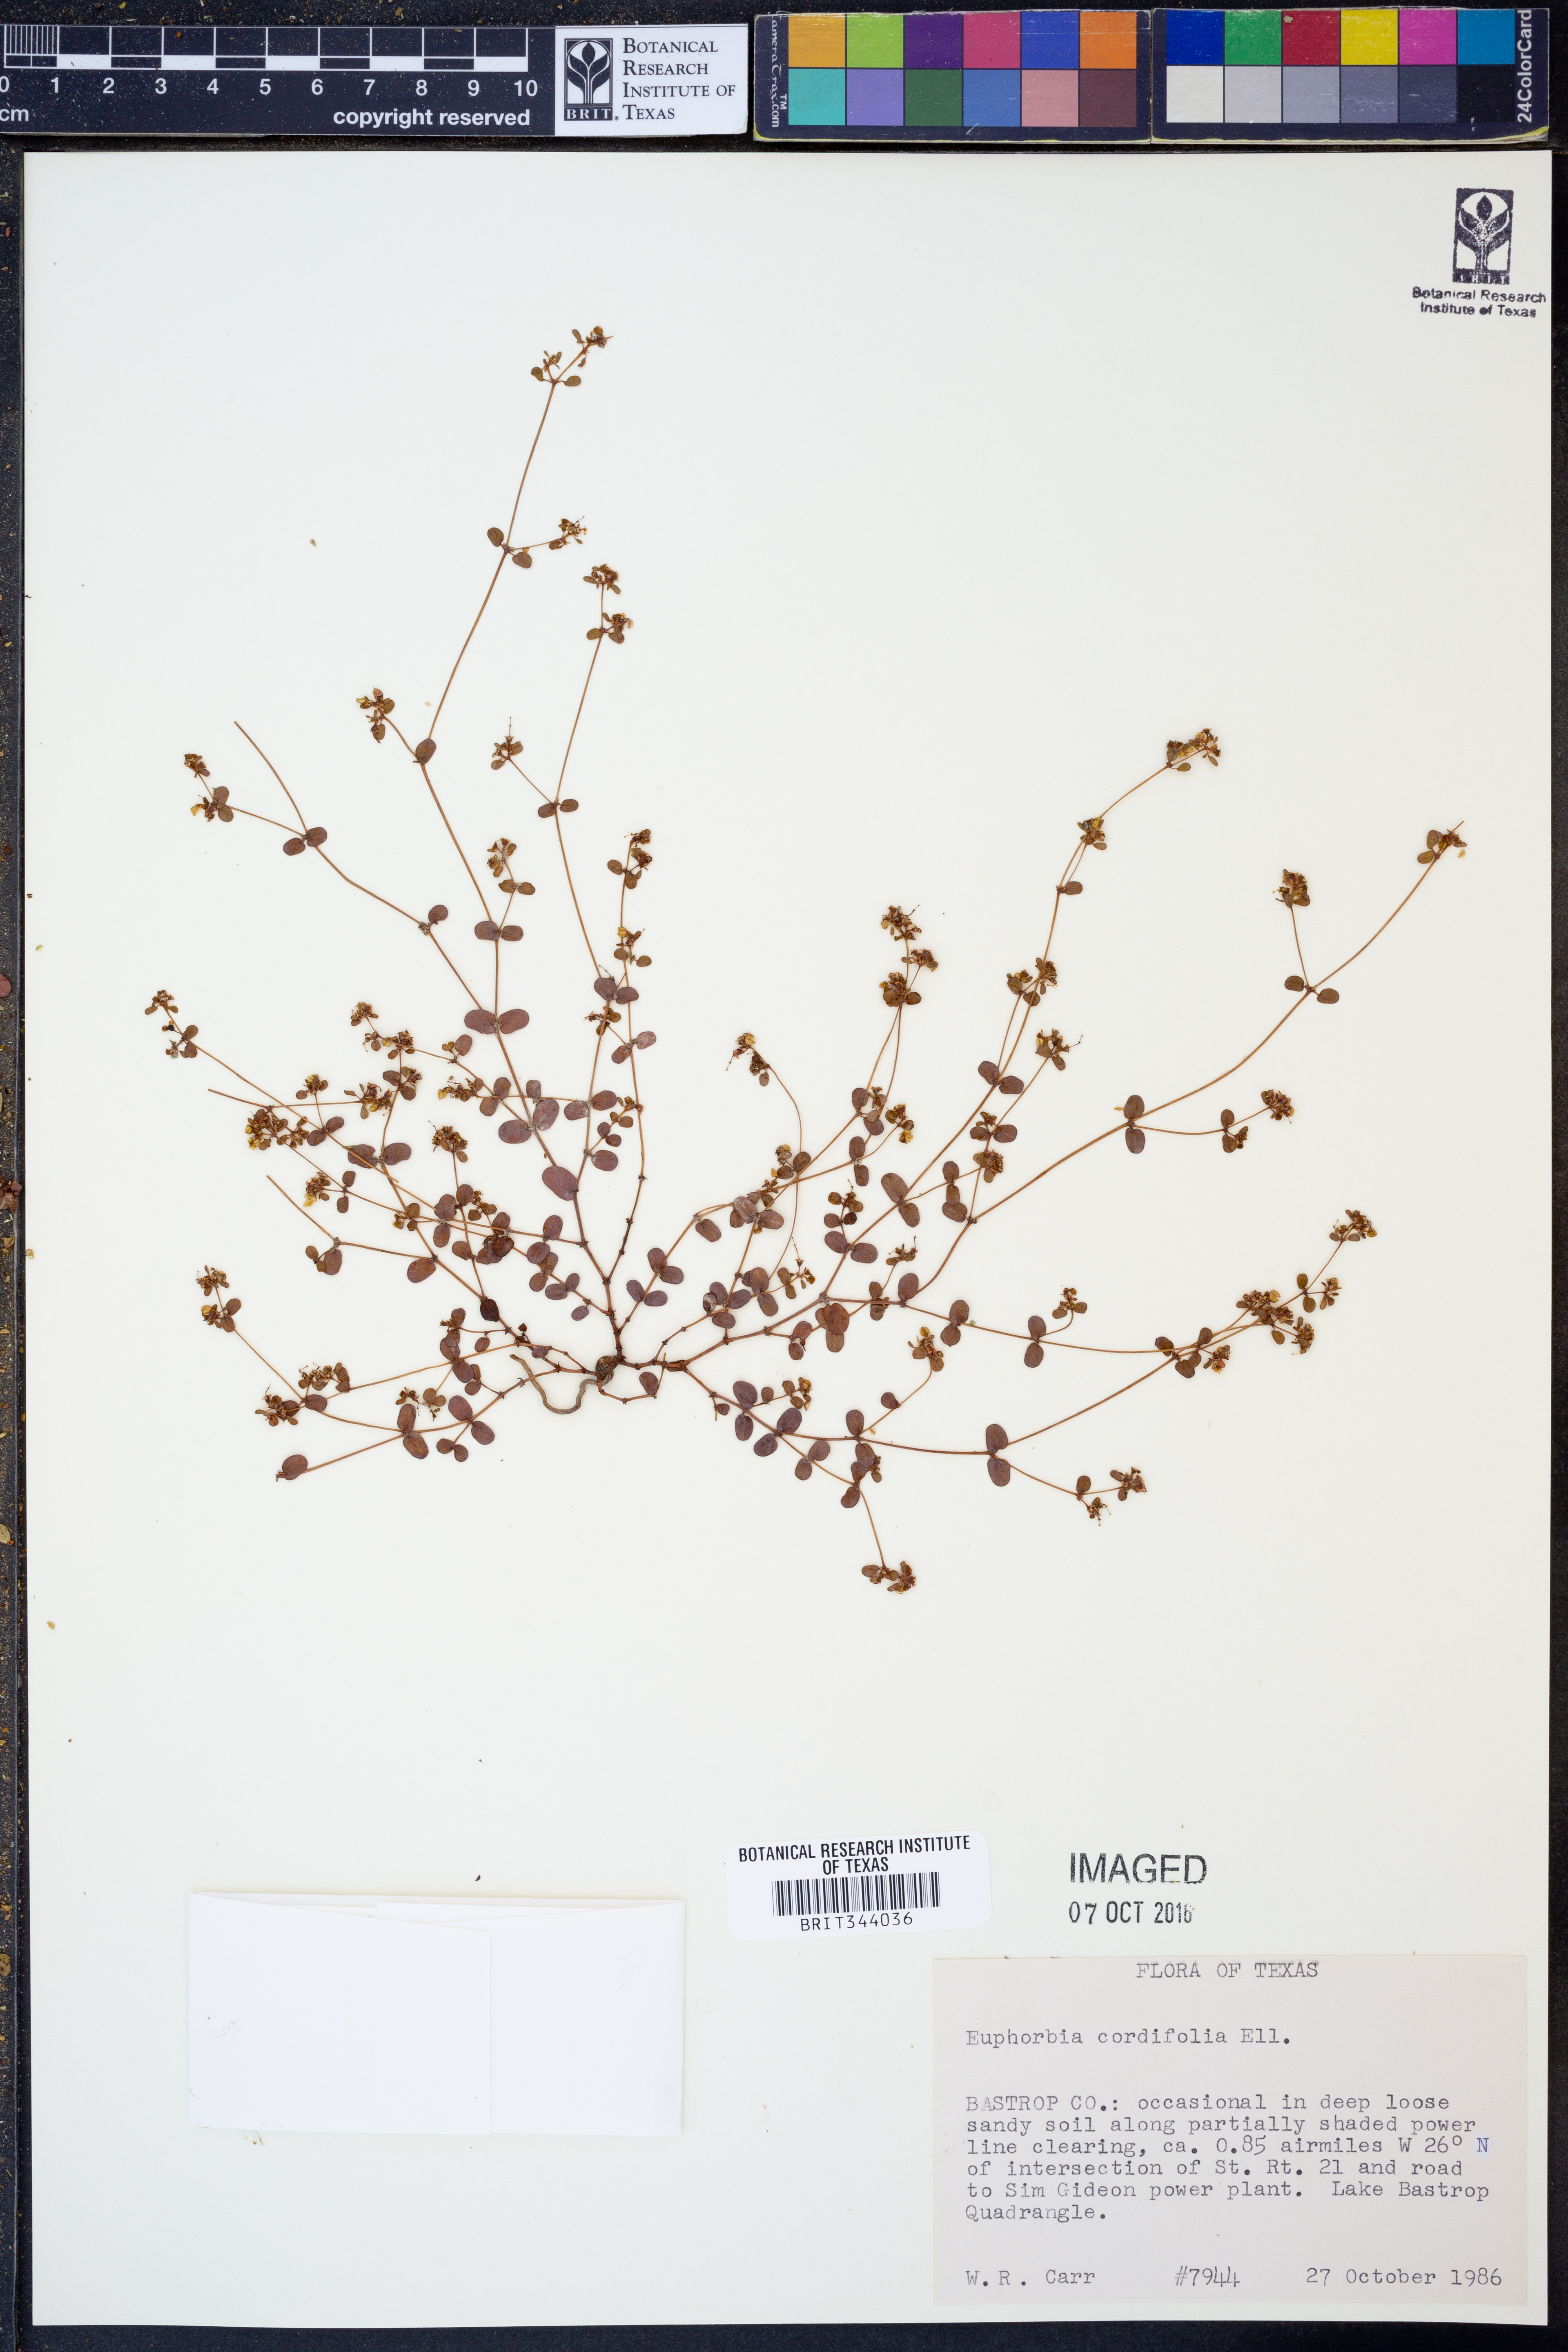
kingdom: Plantae
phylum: Tracheophyta
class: Magnoliopsida
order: Malpighiales
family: Euphorbiaceae
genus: Euphorbia
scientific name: Euphorbia cordifolia
